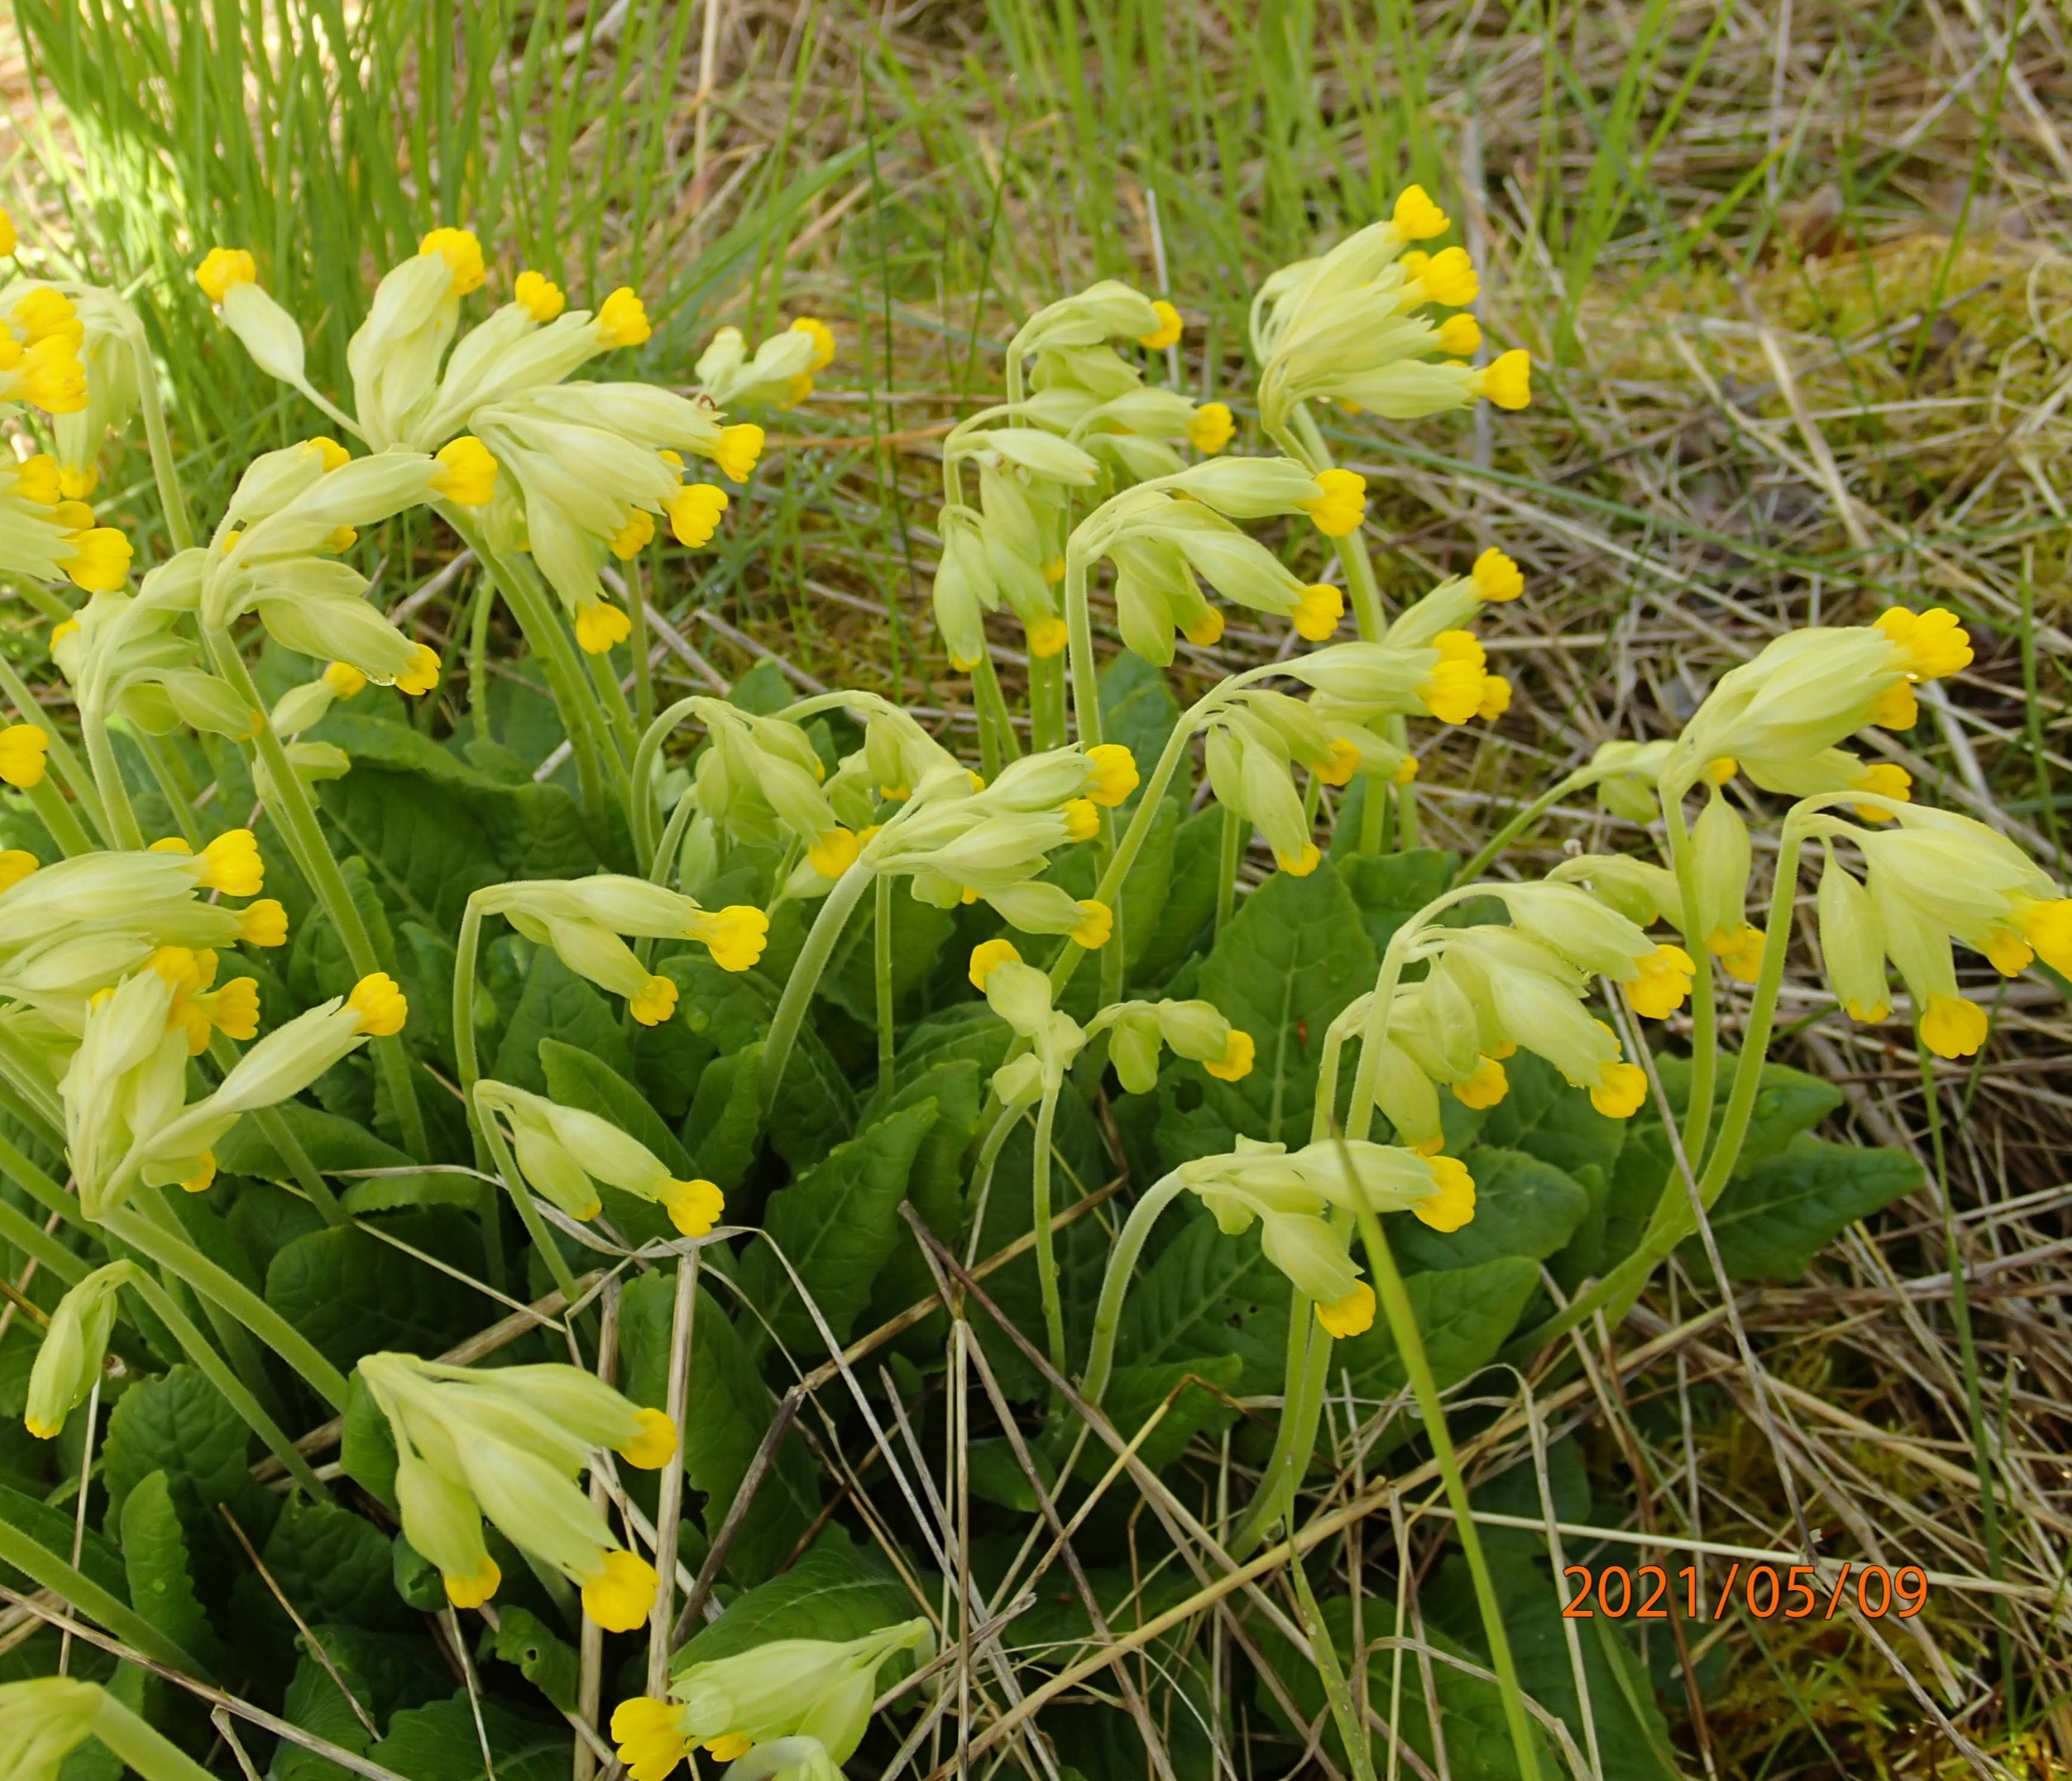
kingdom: Plantae
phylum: Tracheophyta
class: Magnoliopsida
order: Ericales
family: Primulaceae
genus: Primula
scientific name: Primula veris
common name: Hulkravet kodriver
